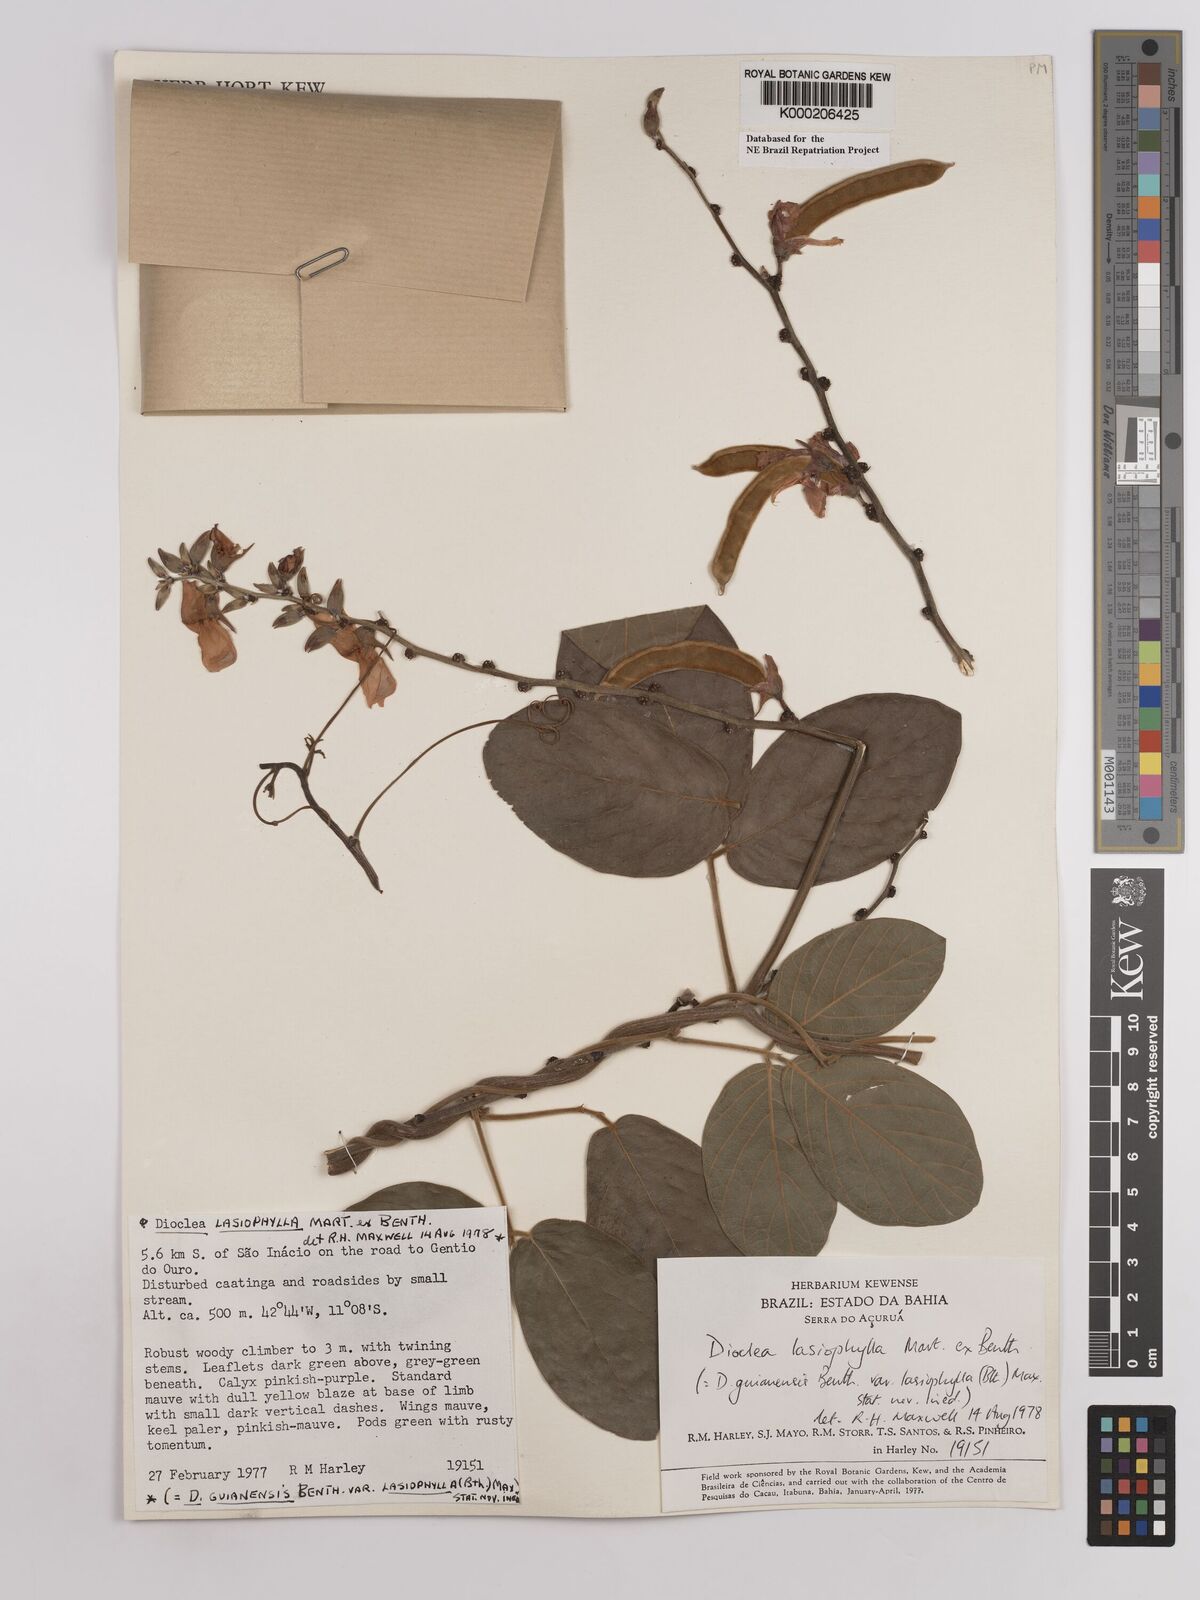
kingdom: Plantae
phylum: Tracheophyta
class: Magnoliopsida
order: Fabales
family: Fabaceae
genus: Dioclea
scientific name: Dioclea lasiophylla
